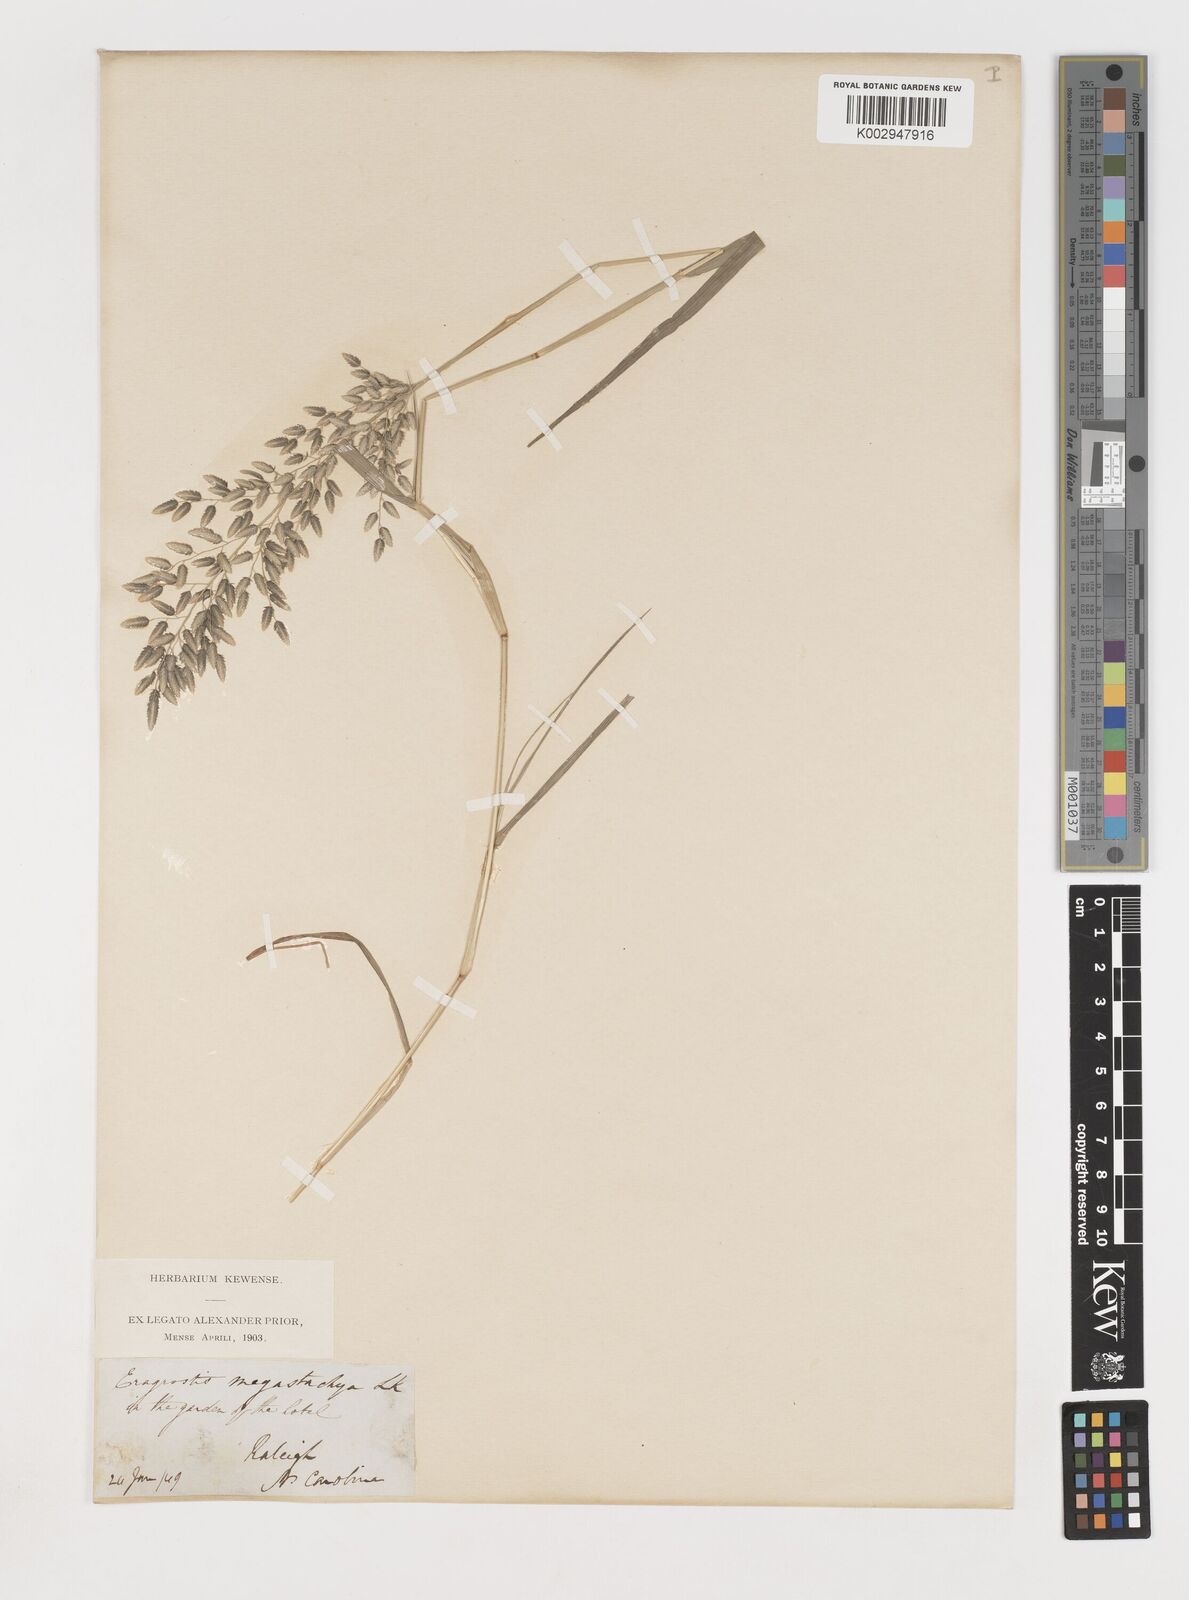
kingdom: Plantae
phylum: Tracheophyta
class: Liliopsida
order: Poales
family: Poaceae
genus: Eragrostis
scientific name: Eragrostis
